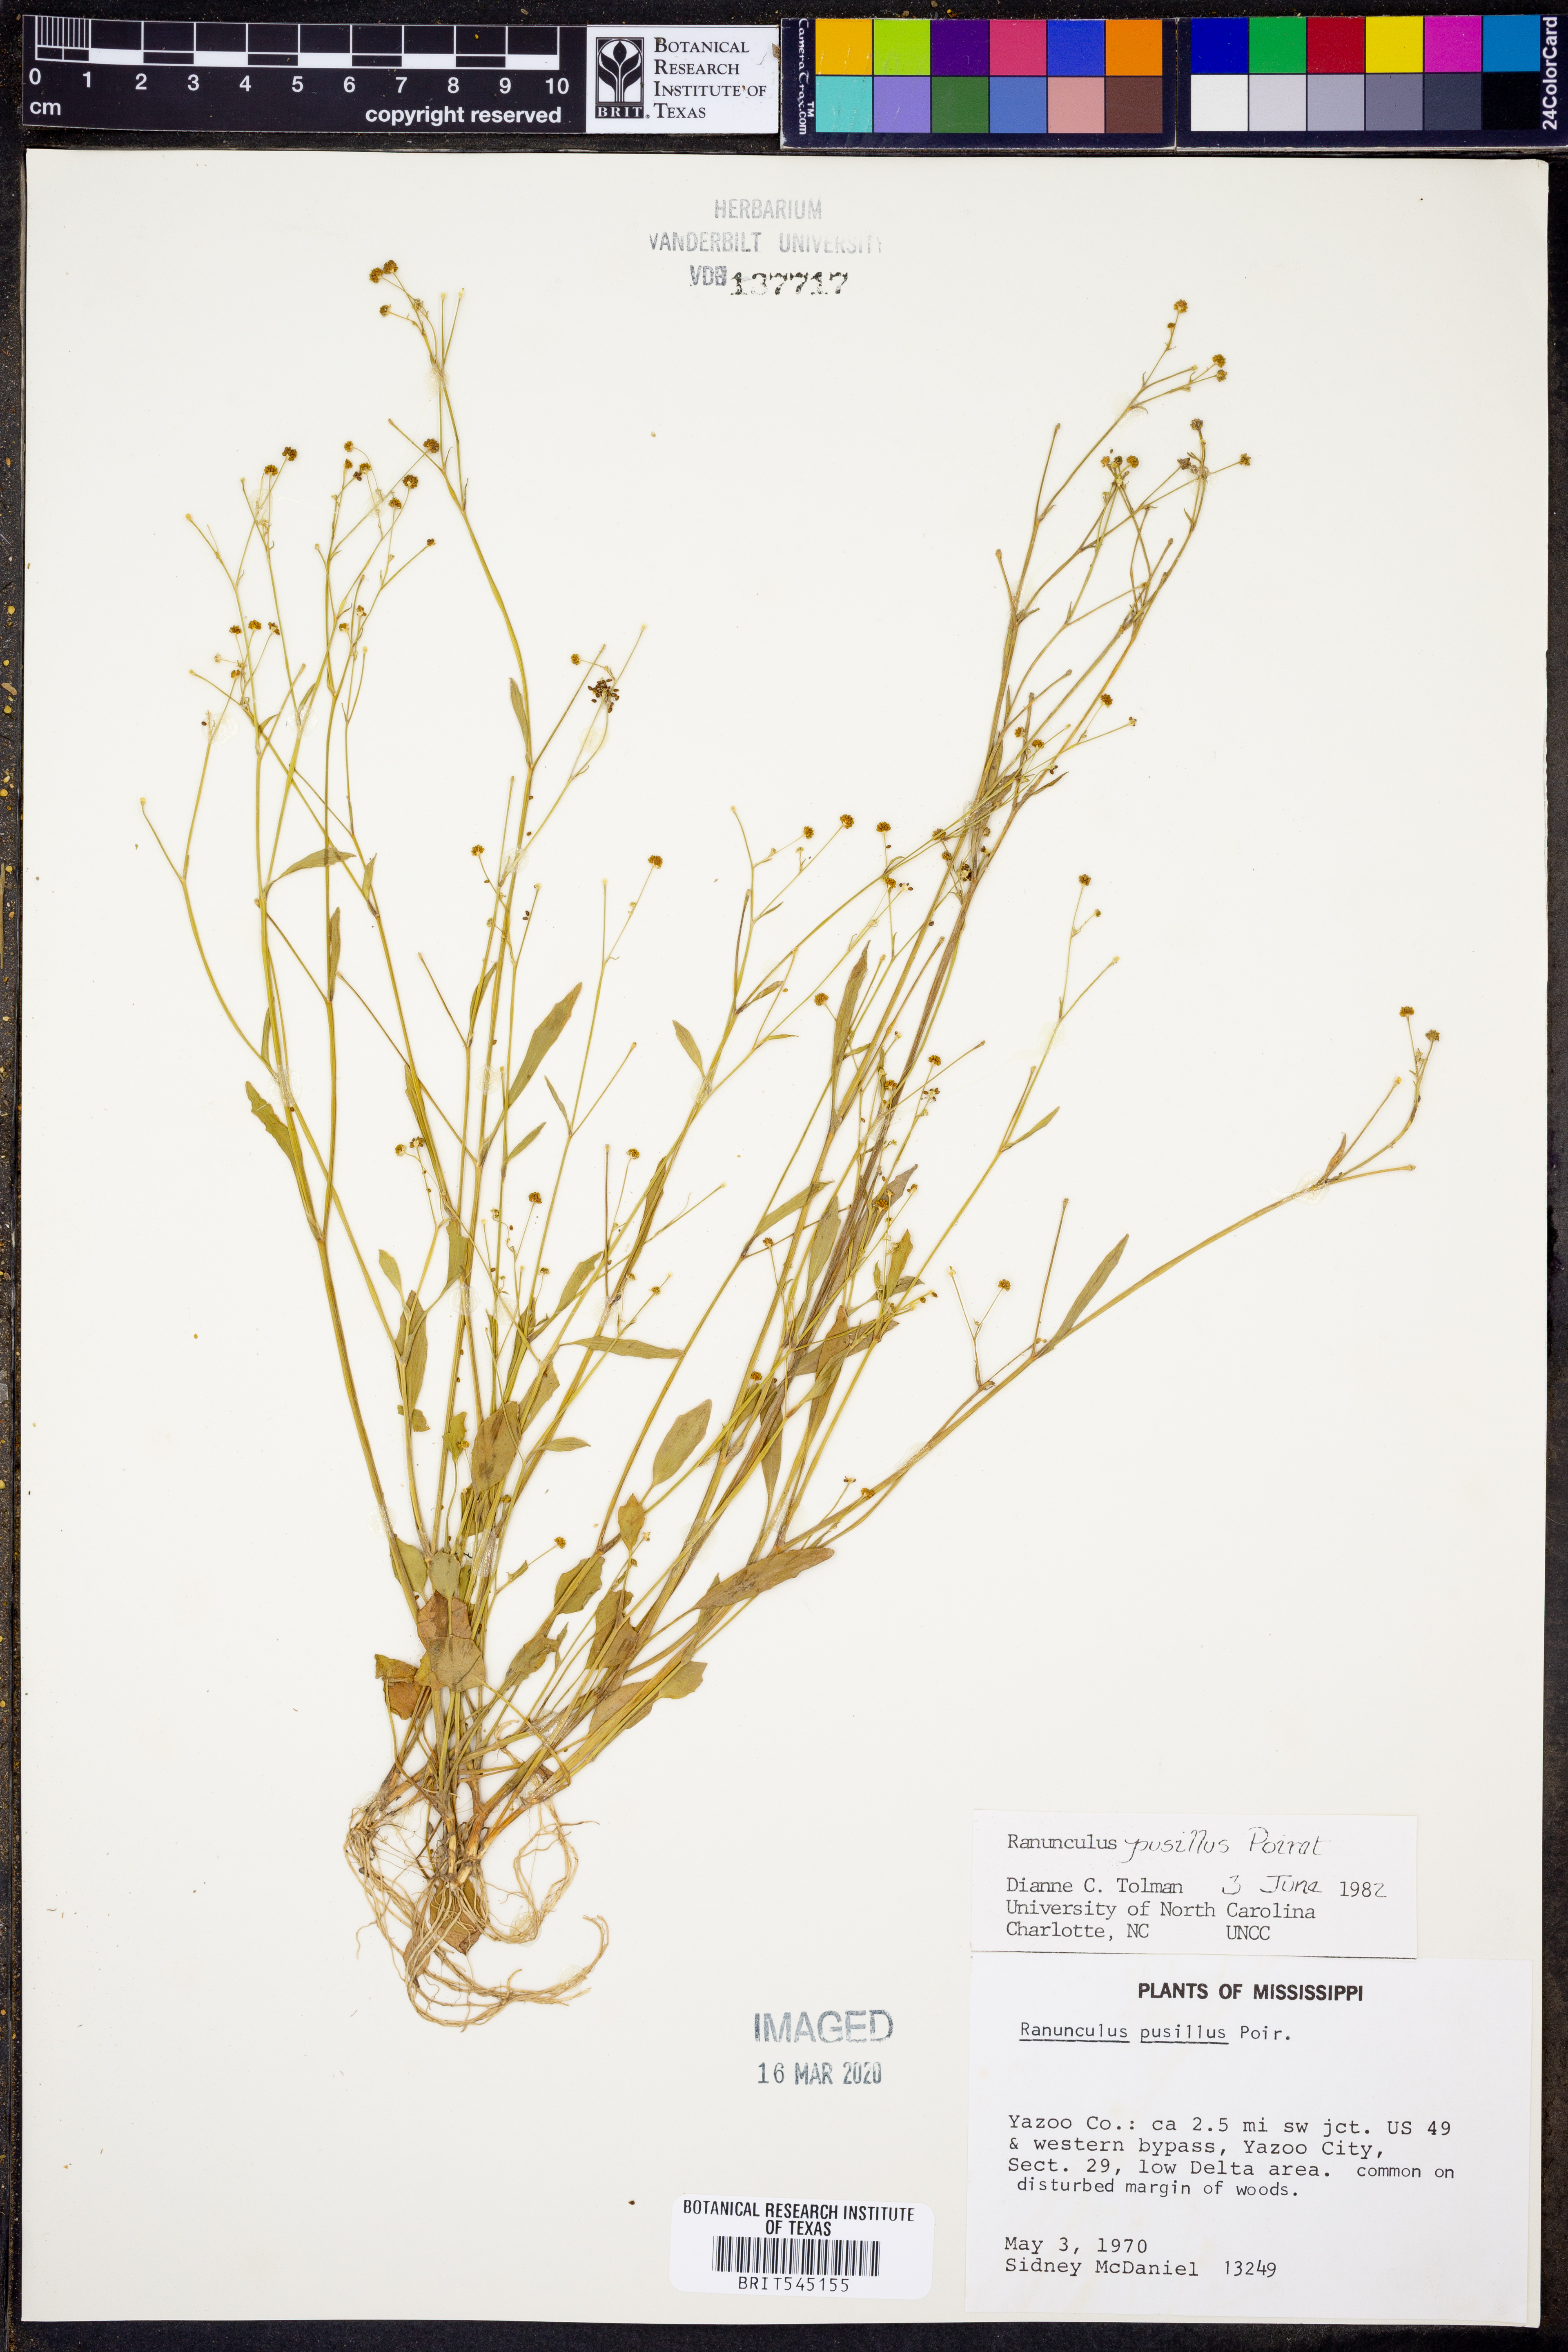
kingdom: Plantae
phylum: Tracheophyta
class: Magnoliopsida
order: Ranunculales
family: Ranunculaceae
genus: Ranunculus
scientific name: Ranunculus pusillus
